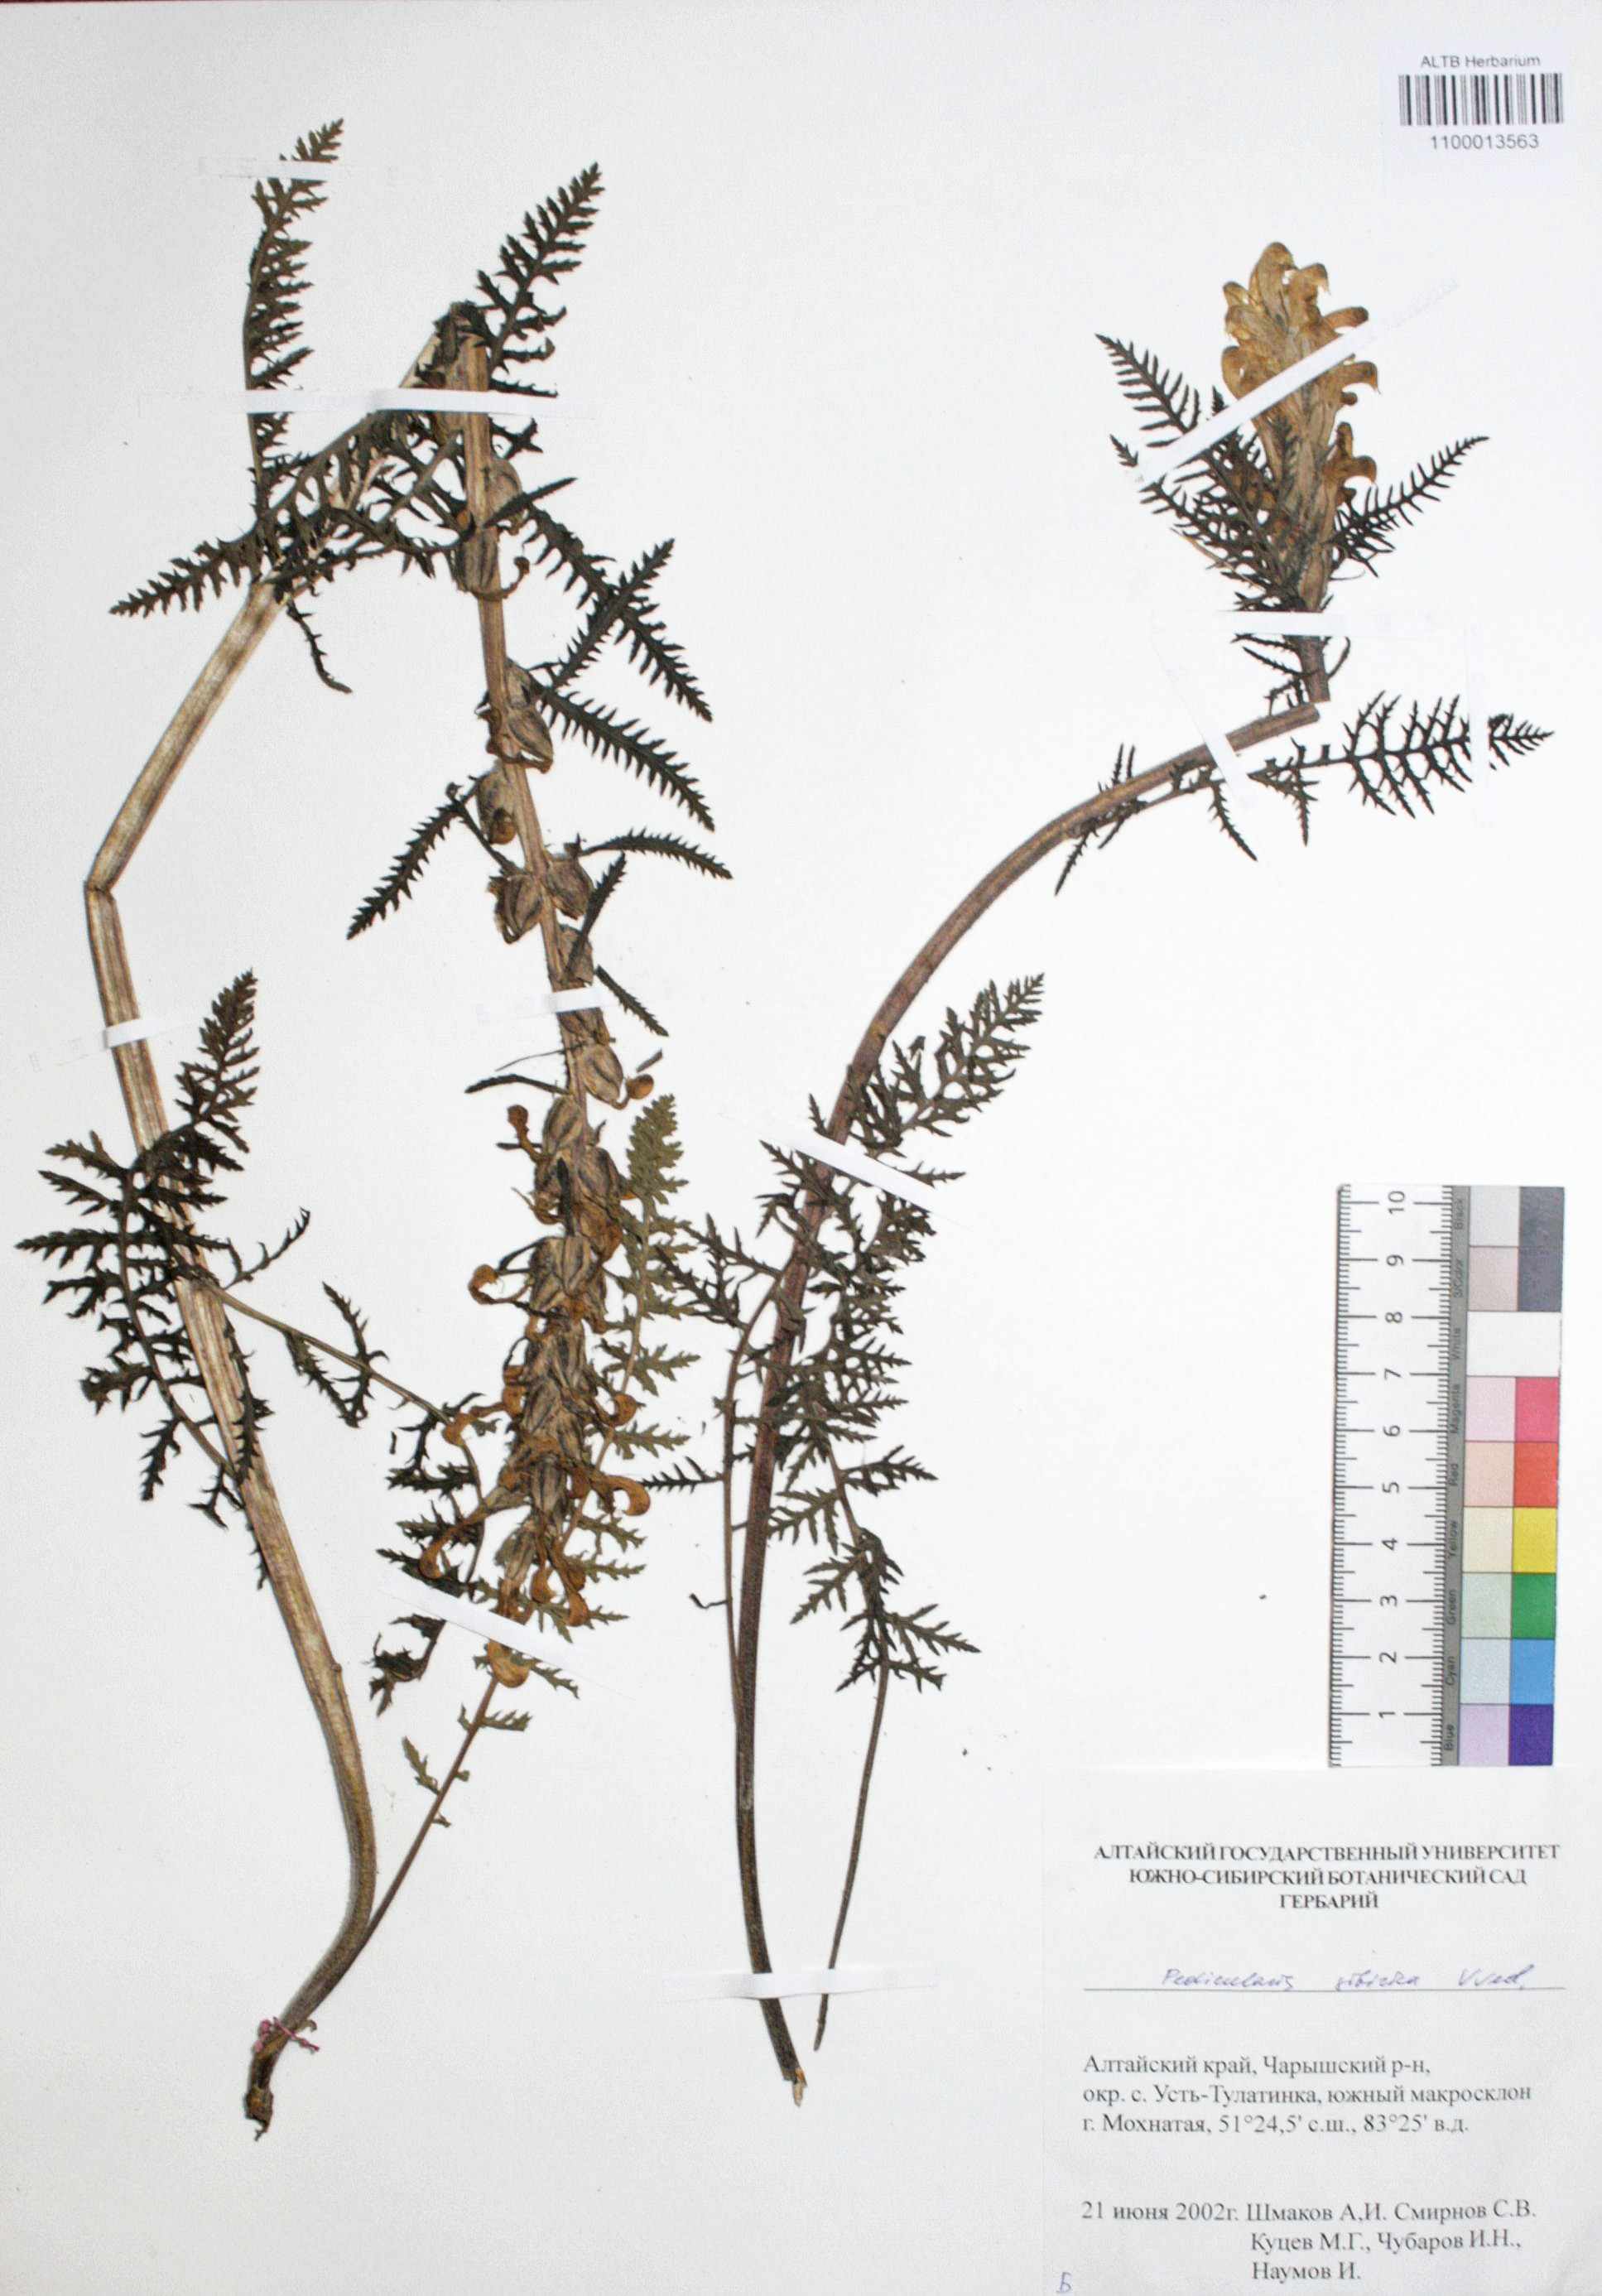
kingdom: Plantae
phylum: Tracheophyta
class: Magnoliopsida
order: Lamiales
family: Orobanchaceae
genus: Pedicularis
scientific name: Pedicularis sibirica
